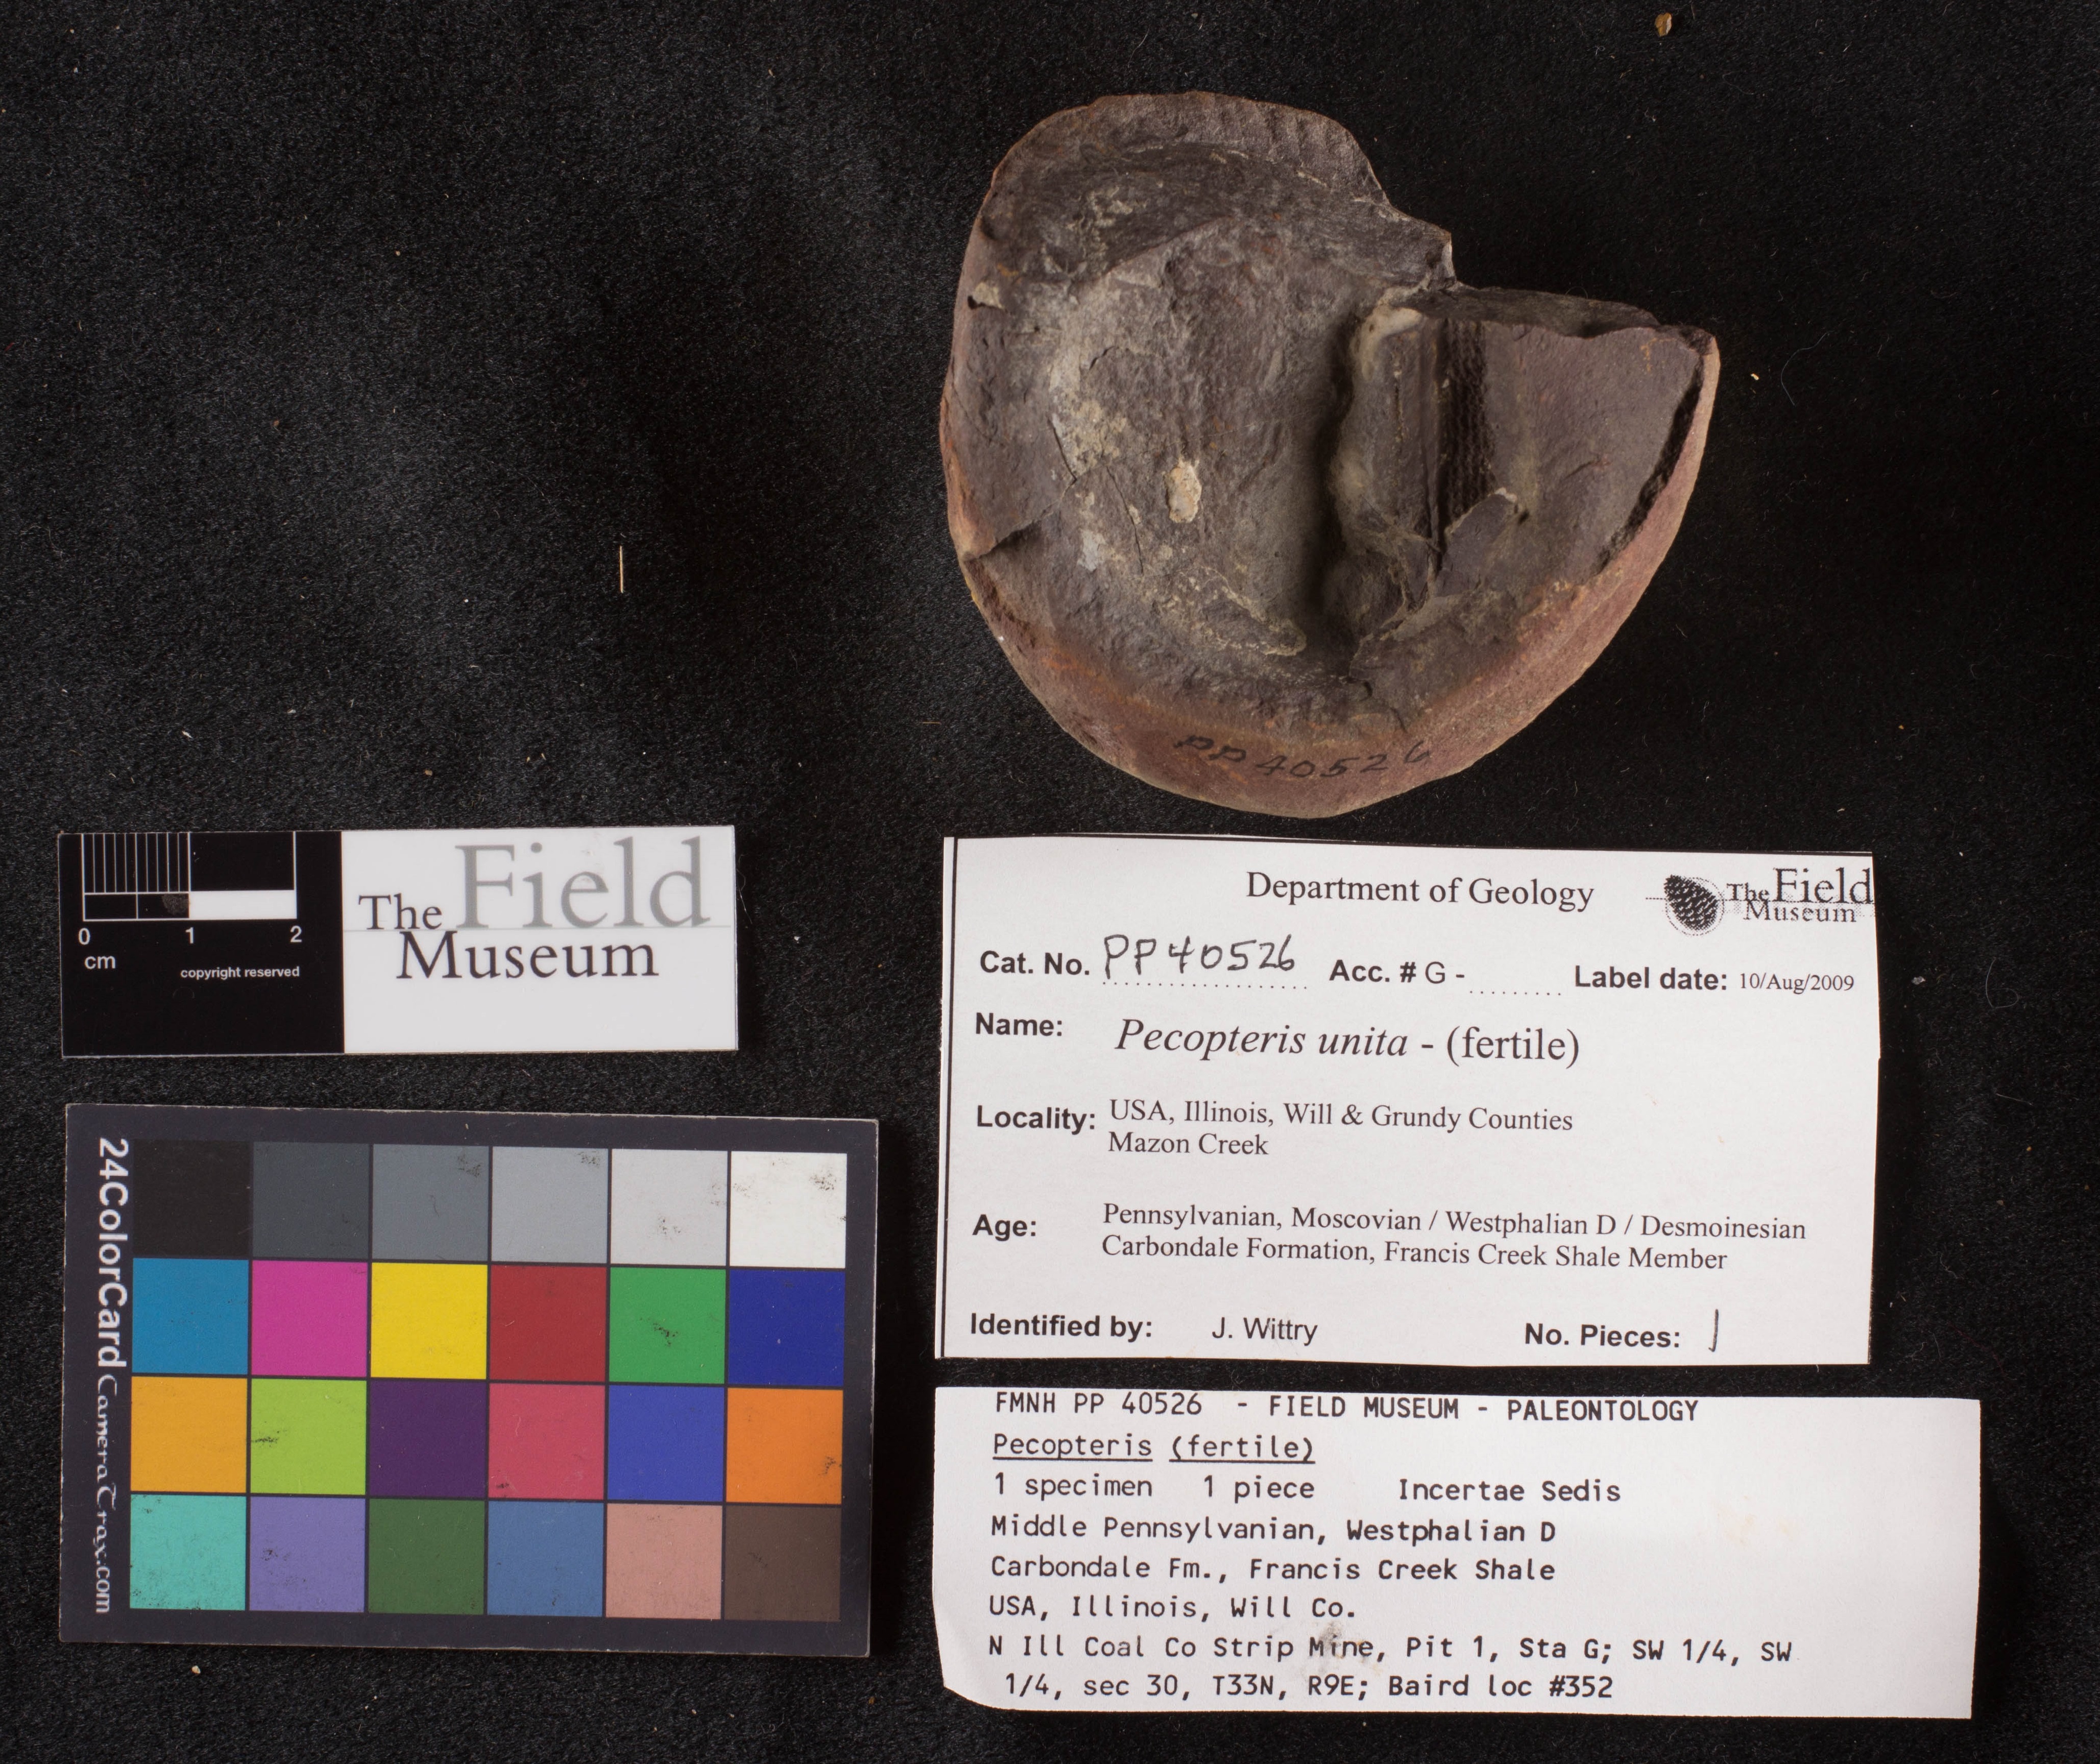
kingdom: Plantae
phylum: Tracheophyta
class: Polypodiopsida
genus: Diplazites
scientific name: Diplazites
